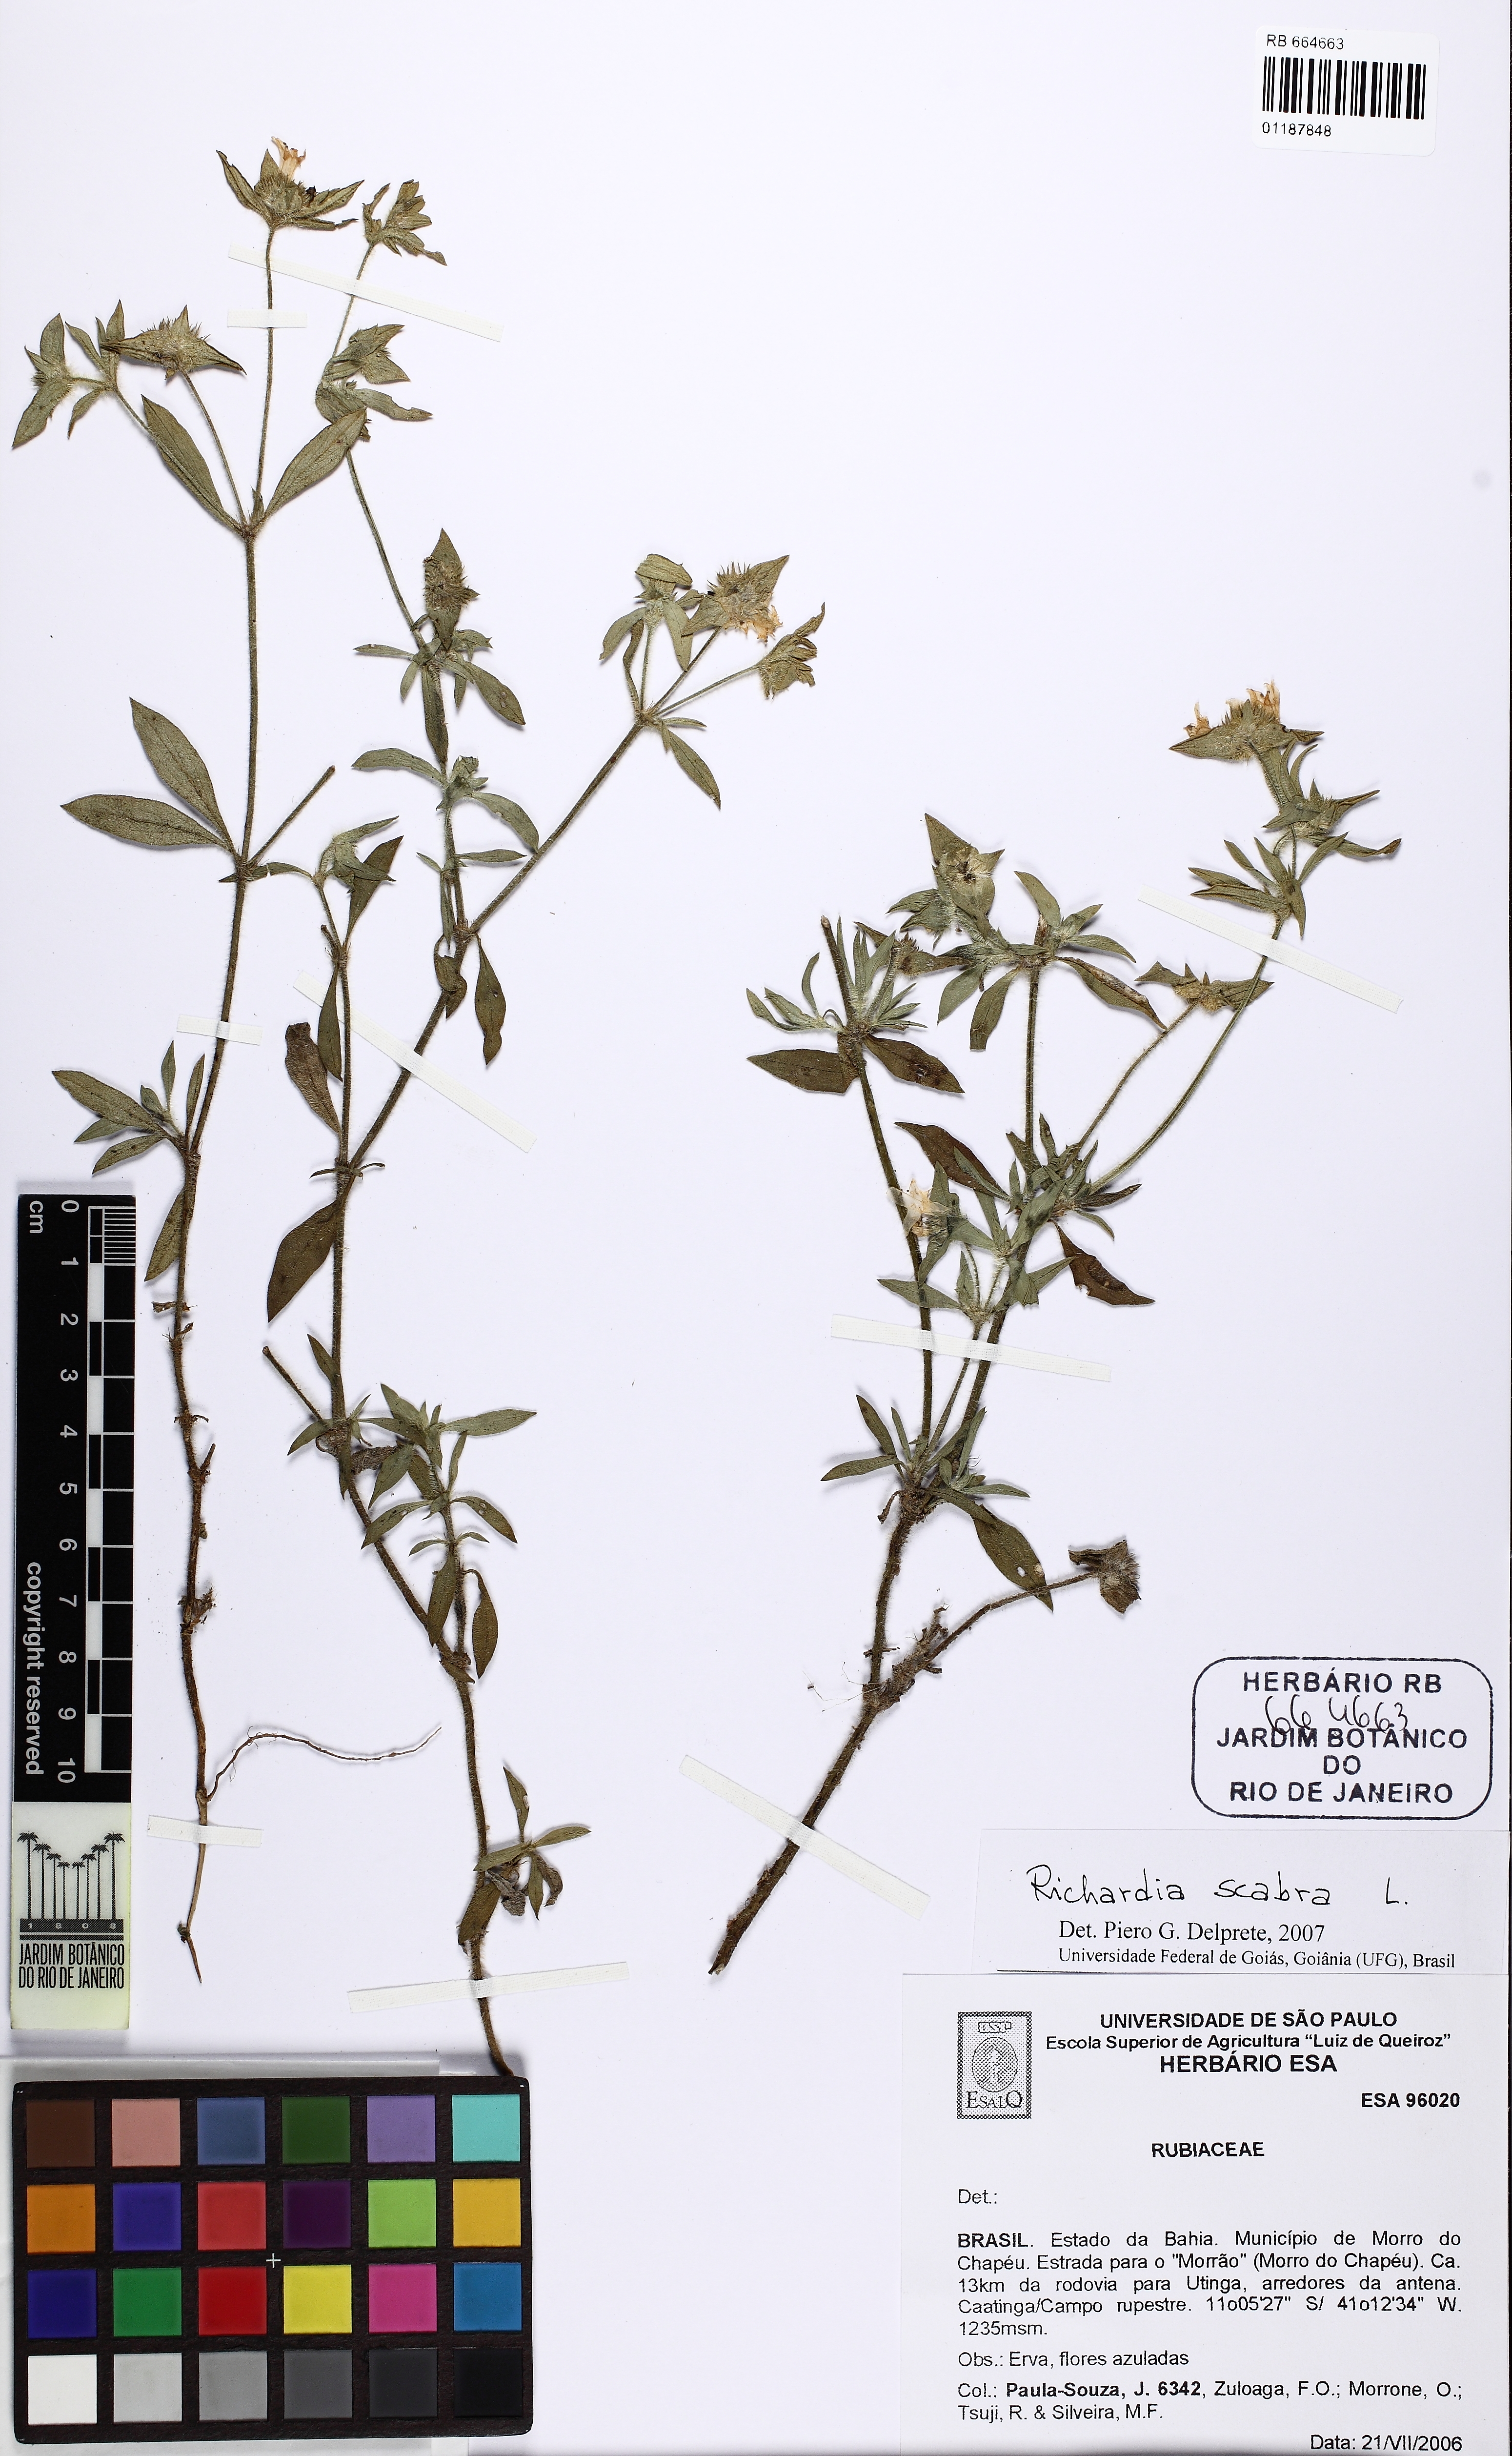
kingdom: Plantae
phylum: Tracheophyta
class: Magnoliopsida
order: Gentianales
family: Rubiaceae
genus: Richardia
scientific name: Richardia scabra
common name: Rough mexican clover
